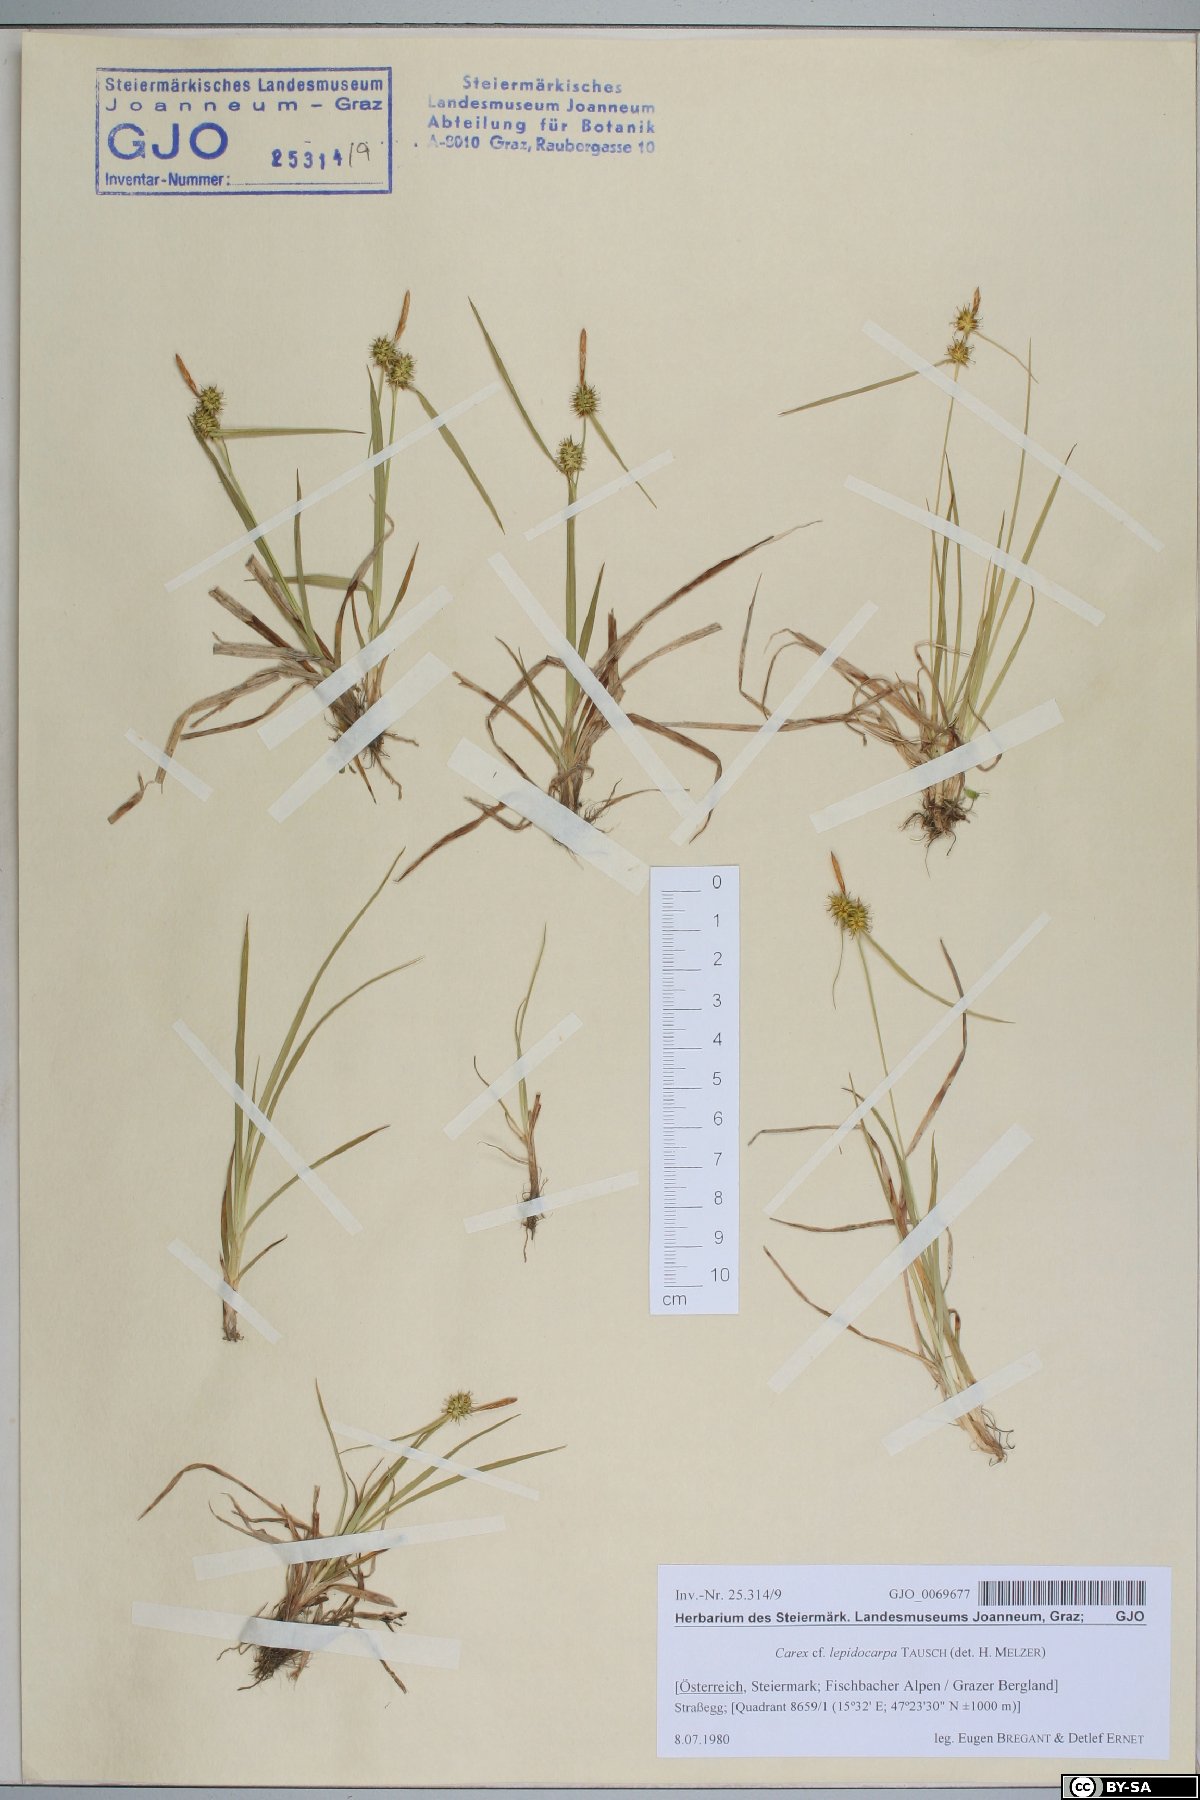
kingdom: Plantae
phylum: Tracheophyta
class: Liliopsida
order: Poales
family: Cyperaceae
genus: Carex
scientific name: Carex lepidocarpa
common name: Long-stalked yellow-sedge
